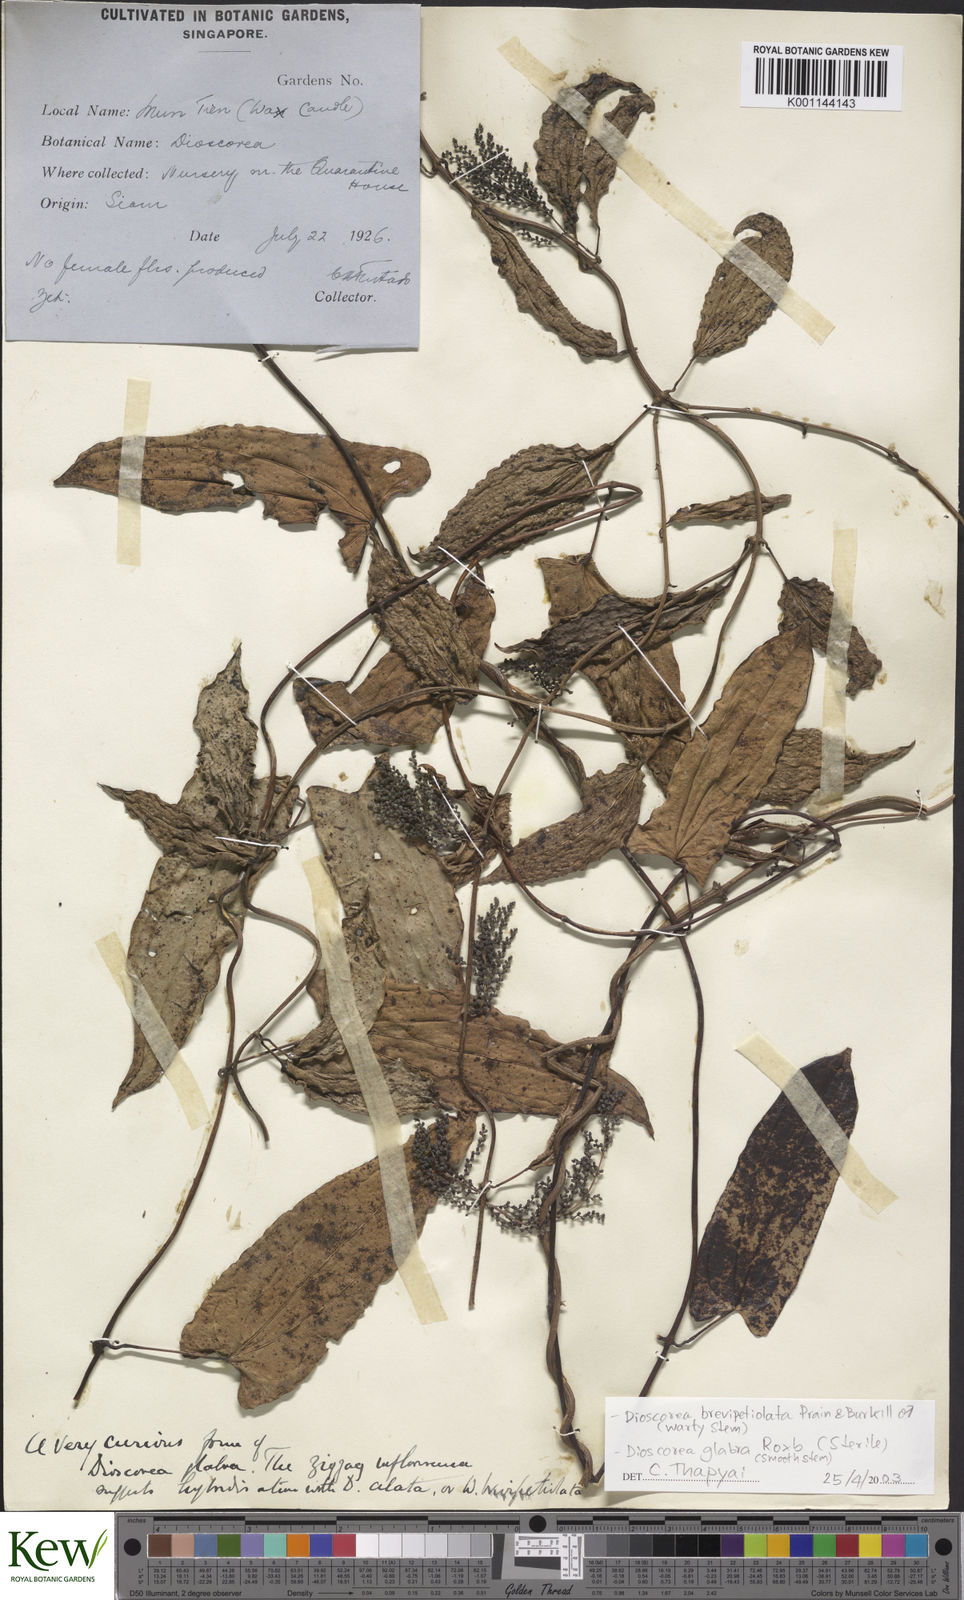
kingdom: Plantae
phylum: Tracheophyta
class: Liliopsida
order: Dioscoreales
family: Dioscoreaceae
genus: Dioscorea
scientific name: Dioscorea glabra
